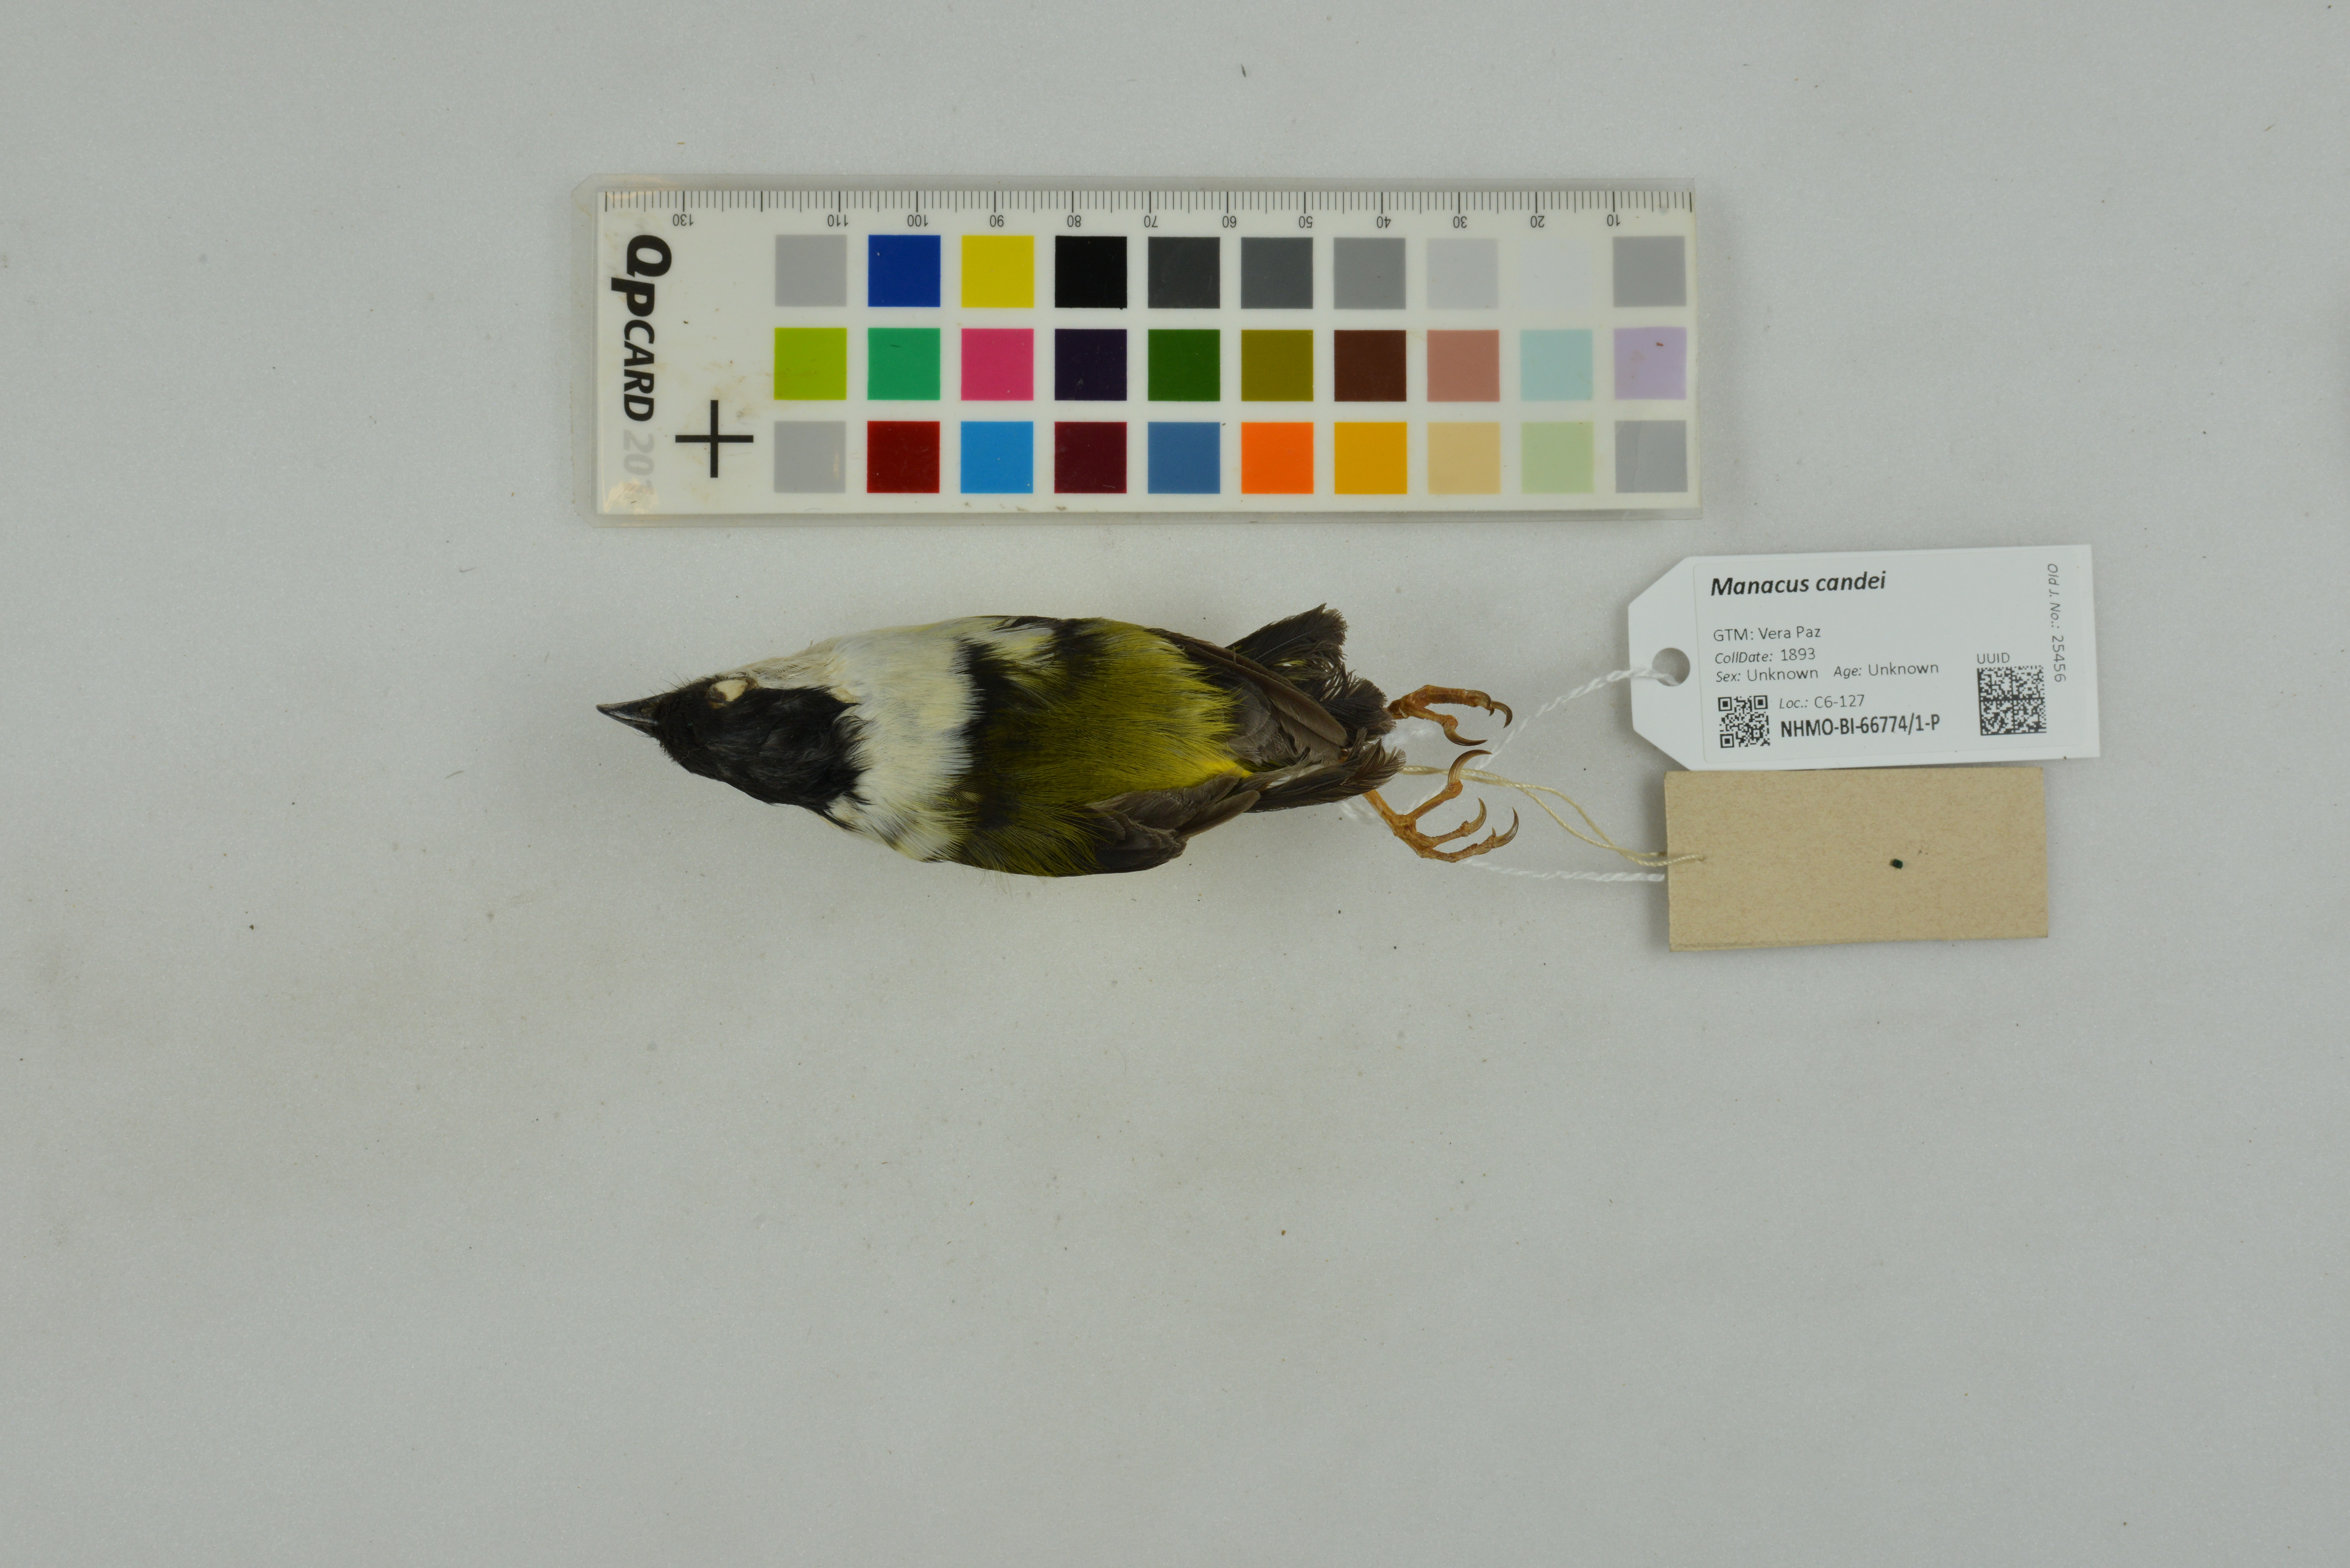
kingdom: Animalia
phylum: Chordata
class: Aves
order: Passeriformes
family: Pipridae
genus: Manacus
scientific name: Manacus candei
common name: White-collared manakin
